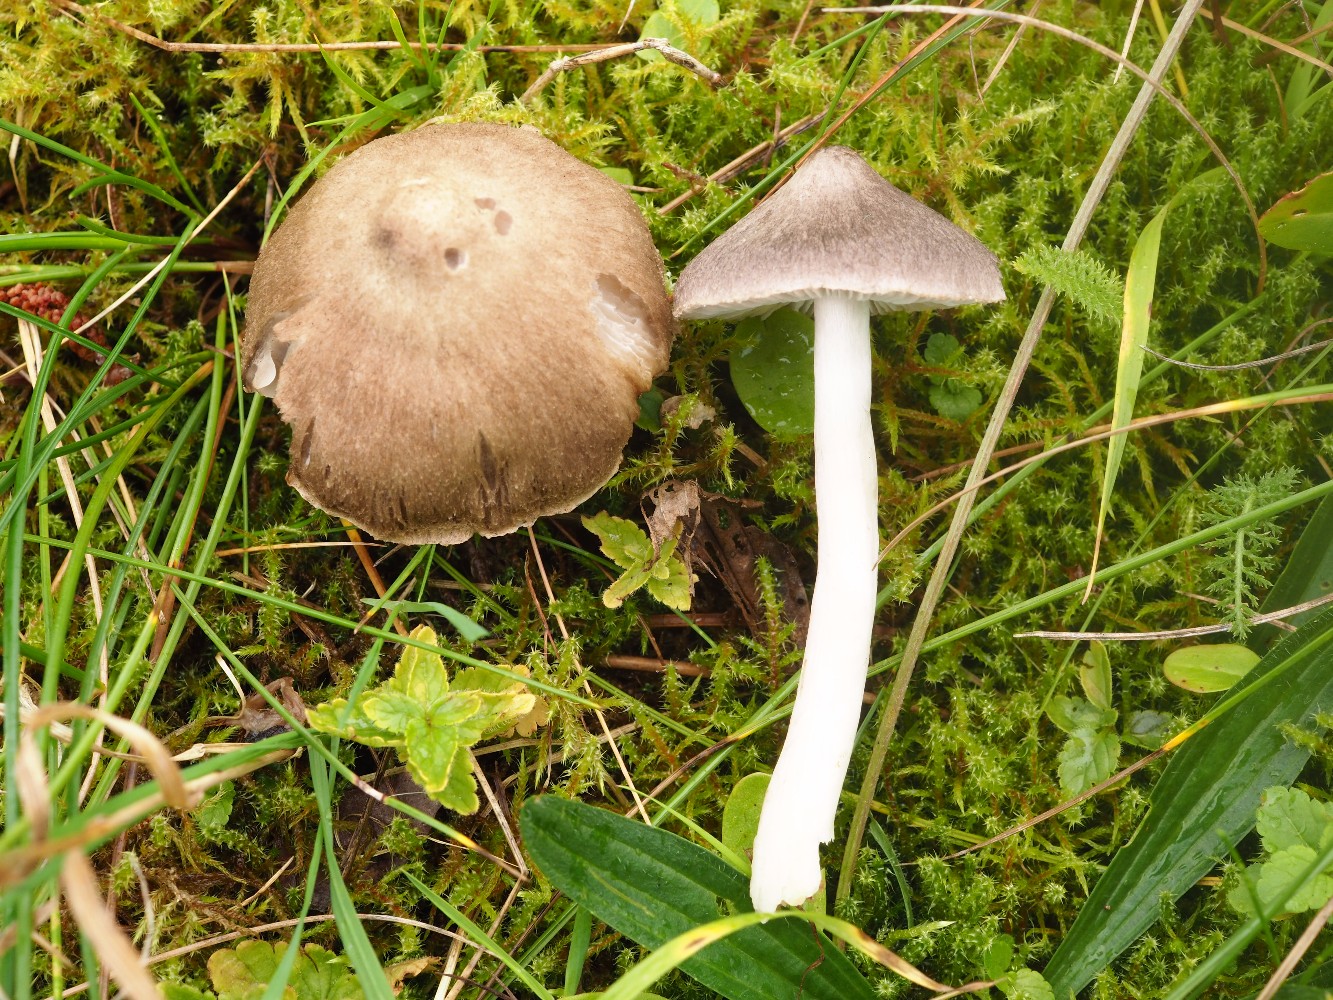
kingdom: Fungi
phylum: Basidiomycota
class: Agaricomycetes
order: Agaricales
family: Tricholomataceae
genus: Tricholoma
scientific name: Tricholoma argyraceum
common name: spids ridderhat
